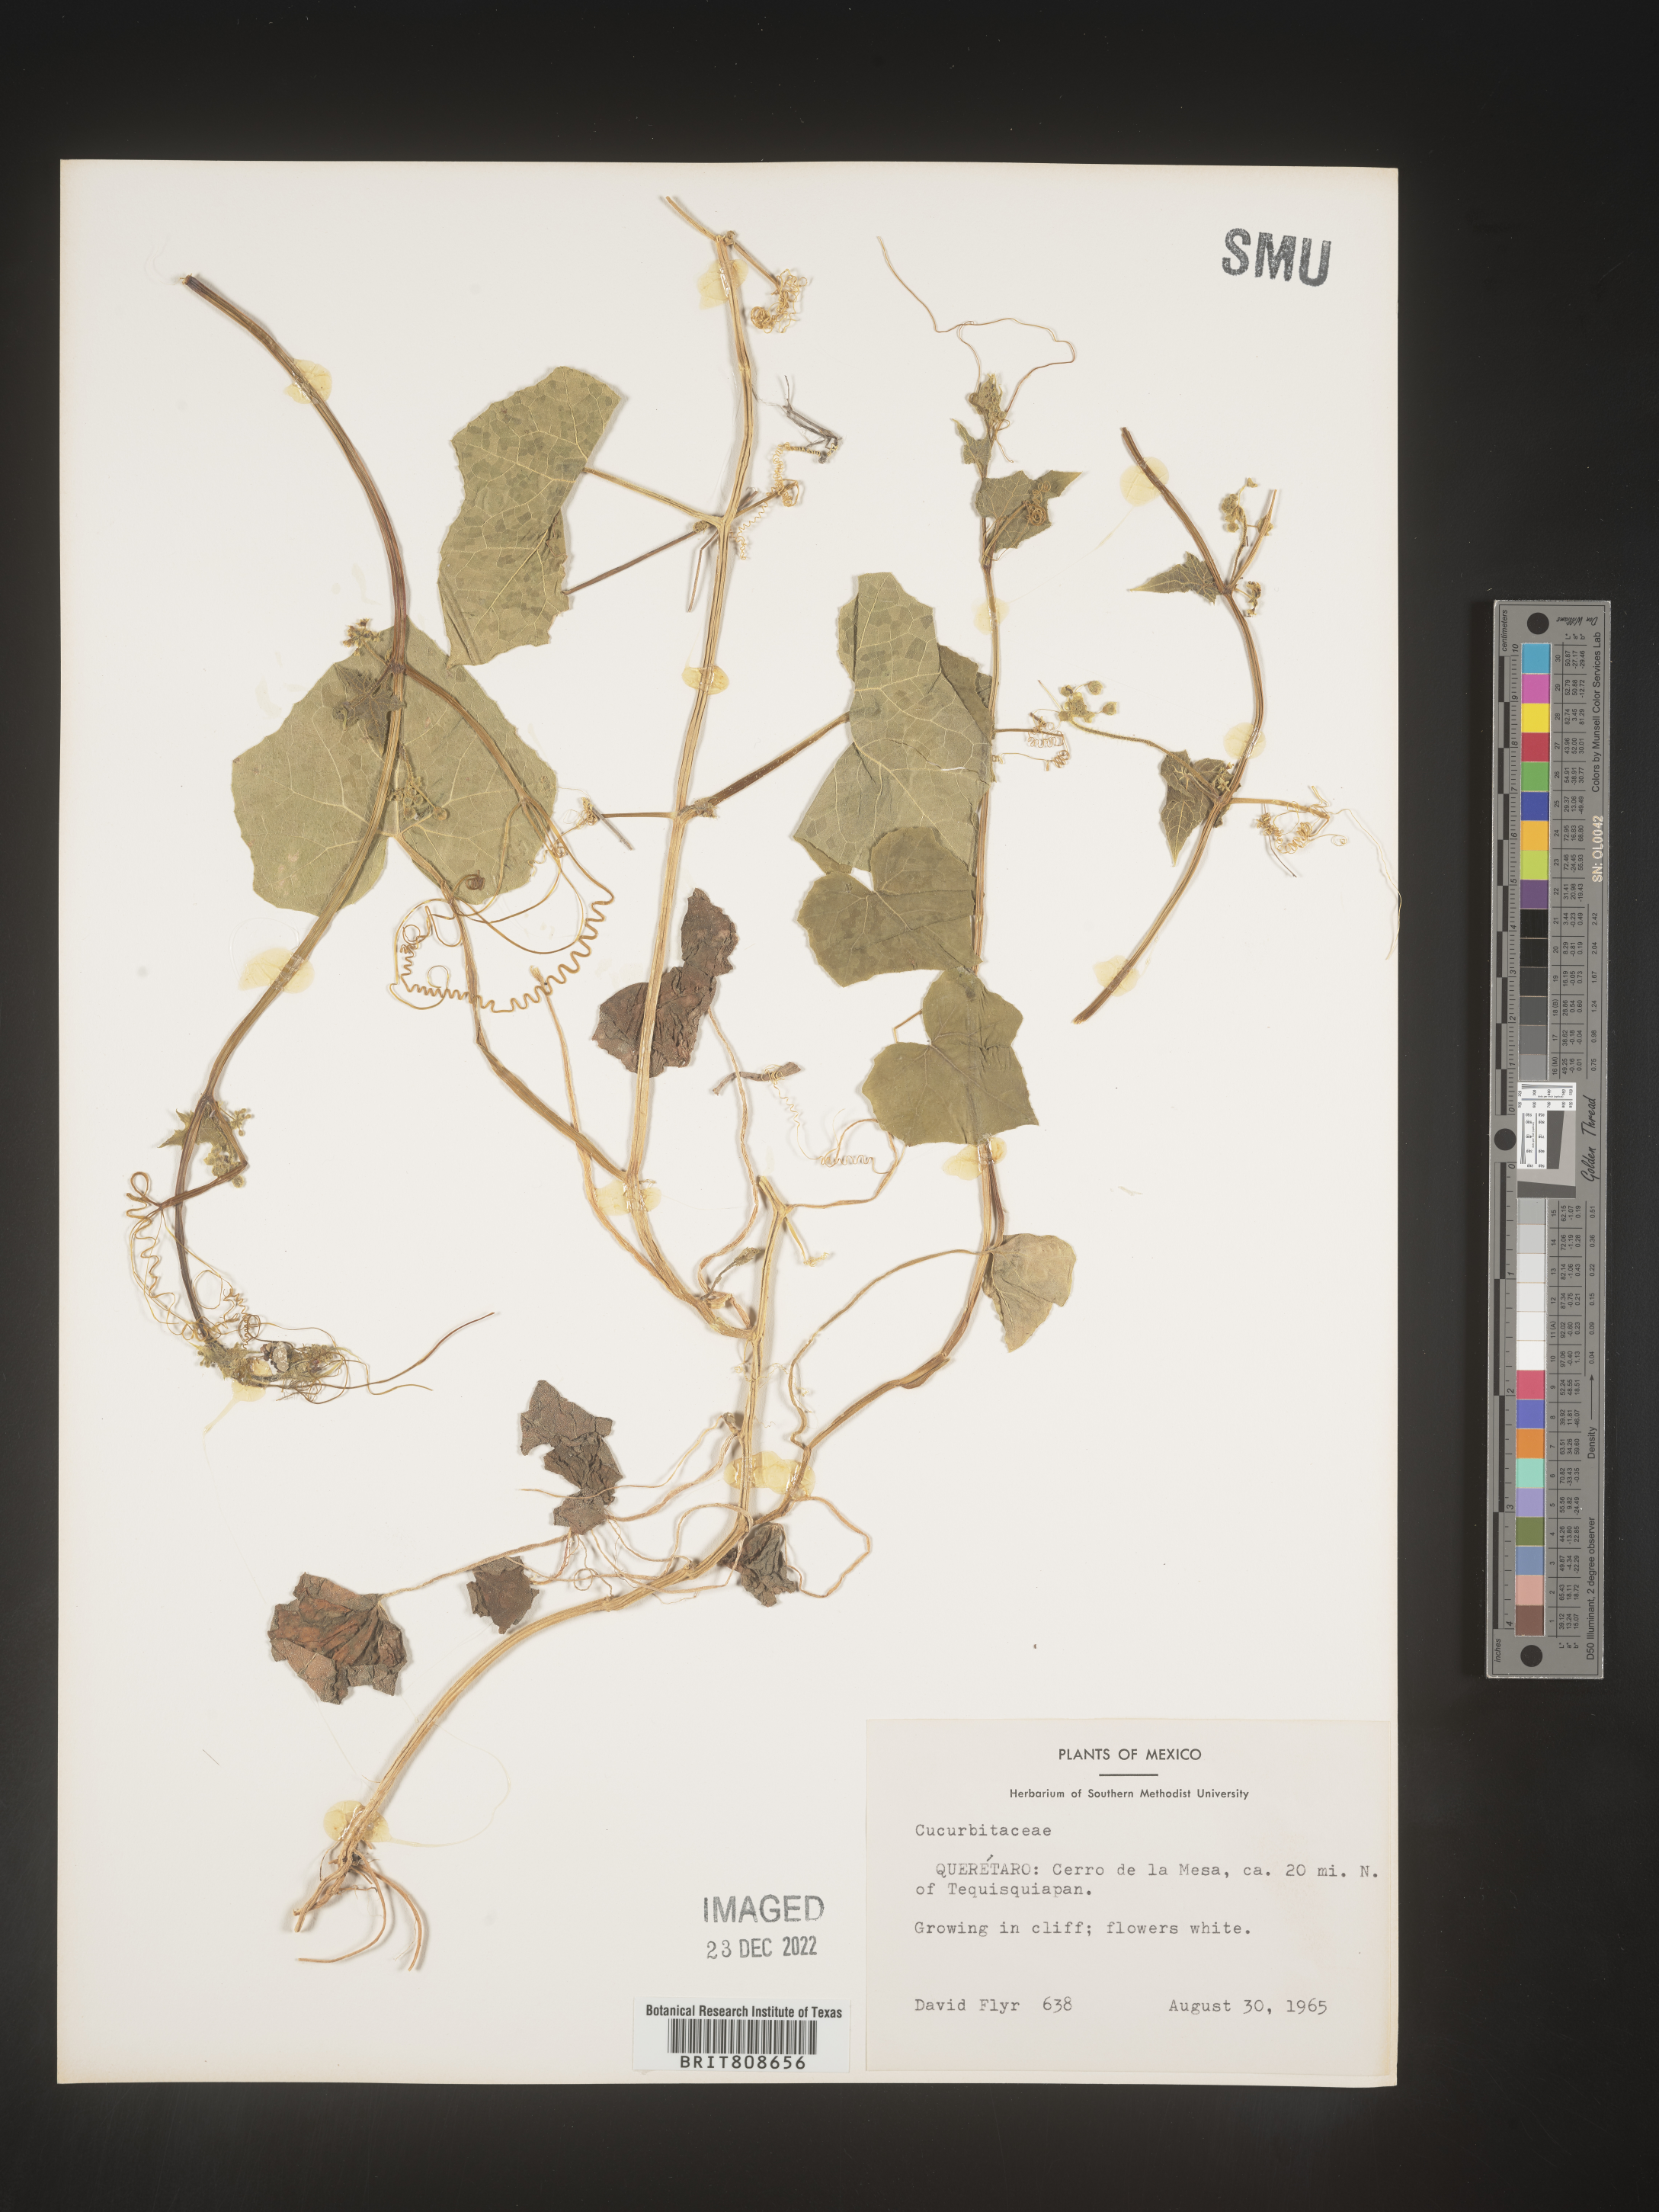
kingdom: Plantae
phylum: Tracheophyta
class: Magnoliopsida
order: Cucurbitales
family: Cucurbitaceae
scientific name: Cucurbitaceae
